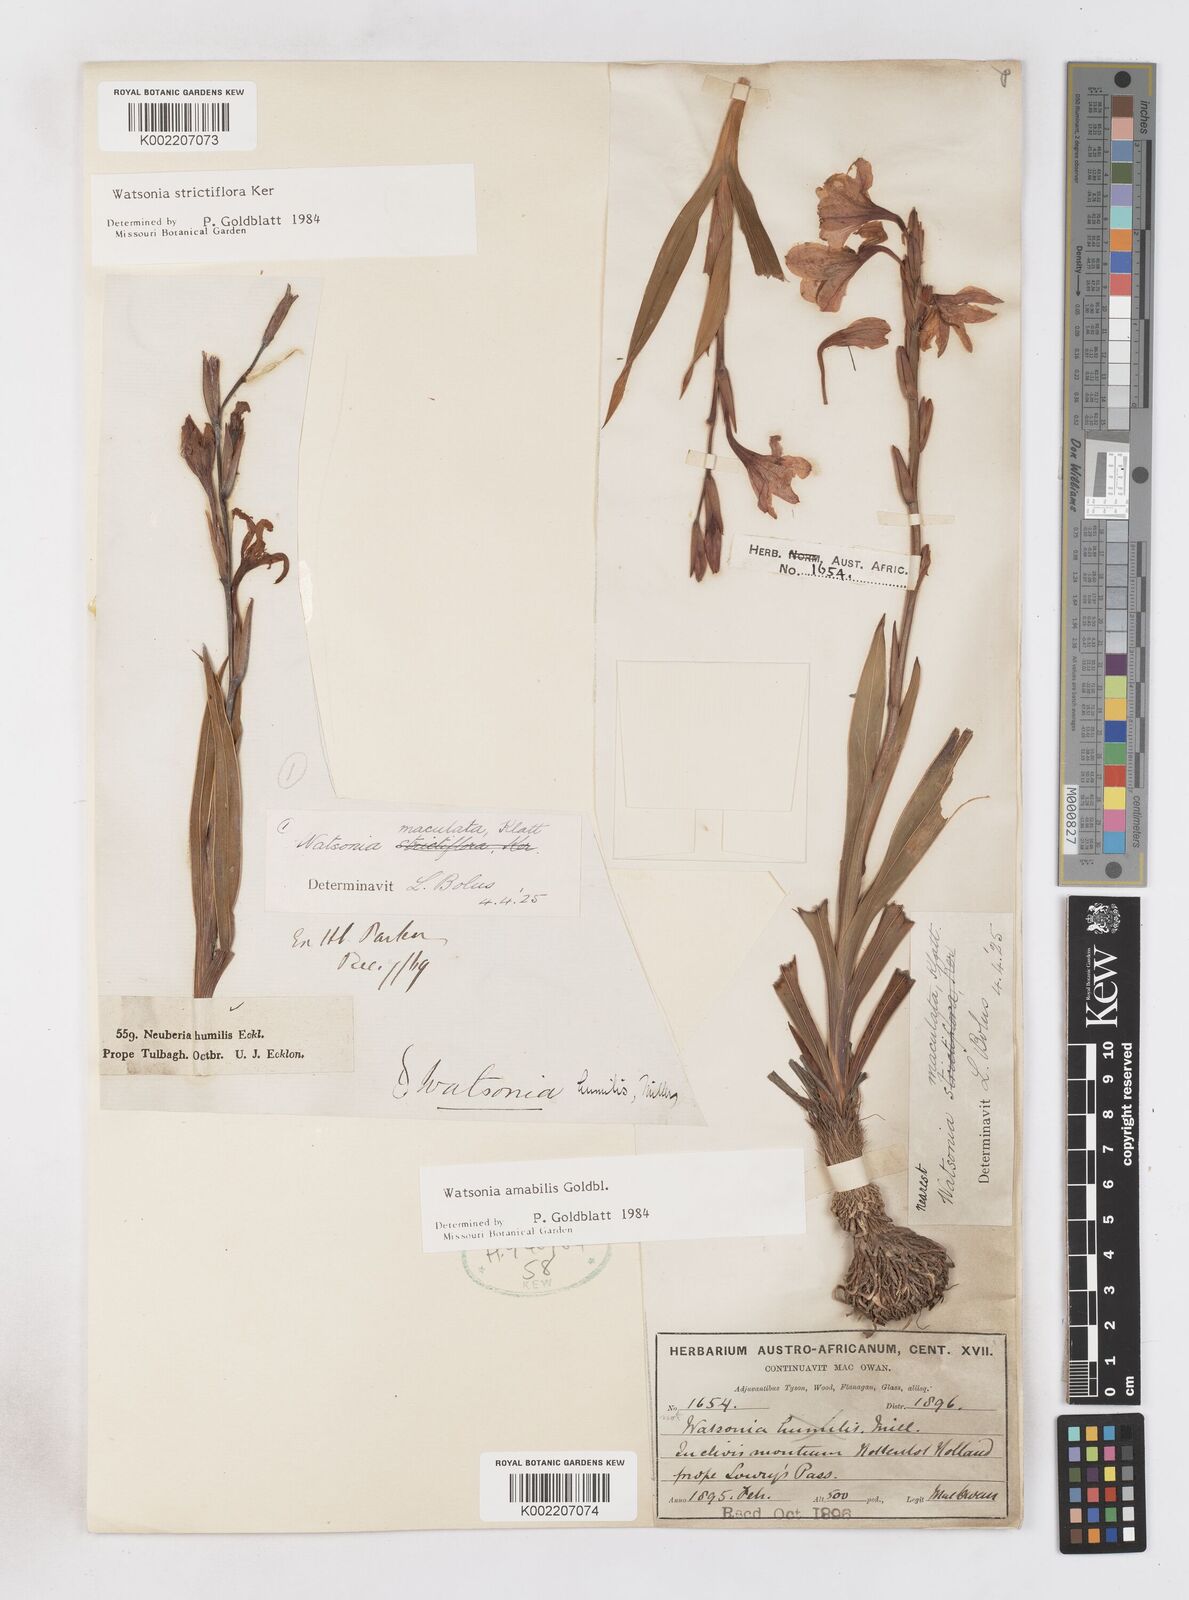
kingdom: Plantae
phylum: Tracheophyta
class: Liliopsida
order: Asparagales
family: Iridaceae
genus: Watsonia
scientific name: Watsonia amabilis
